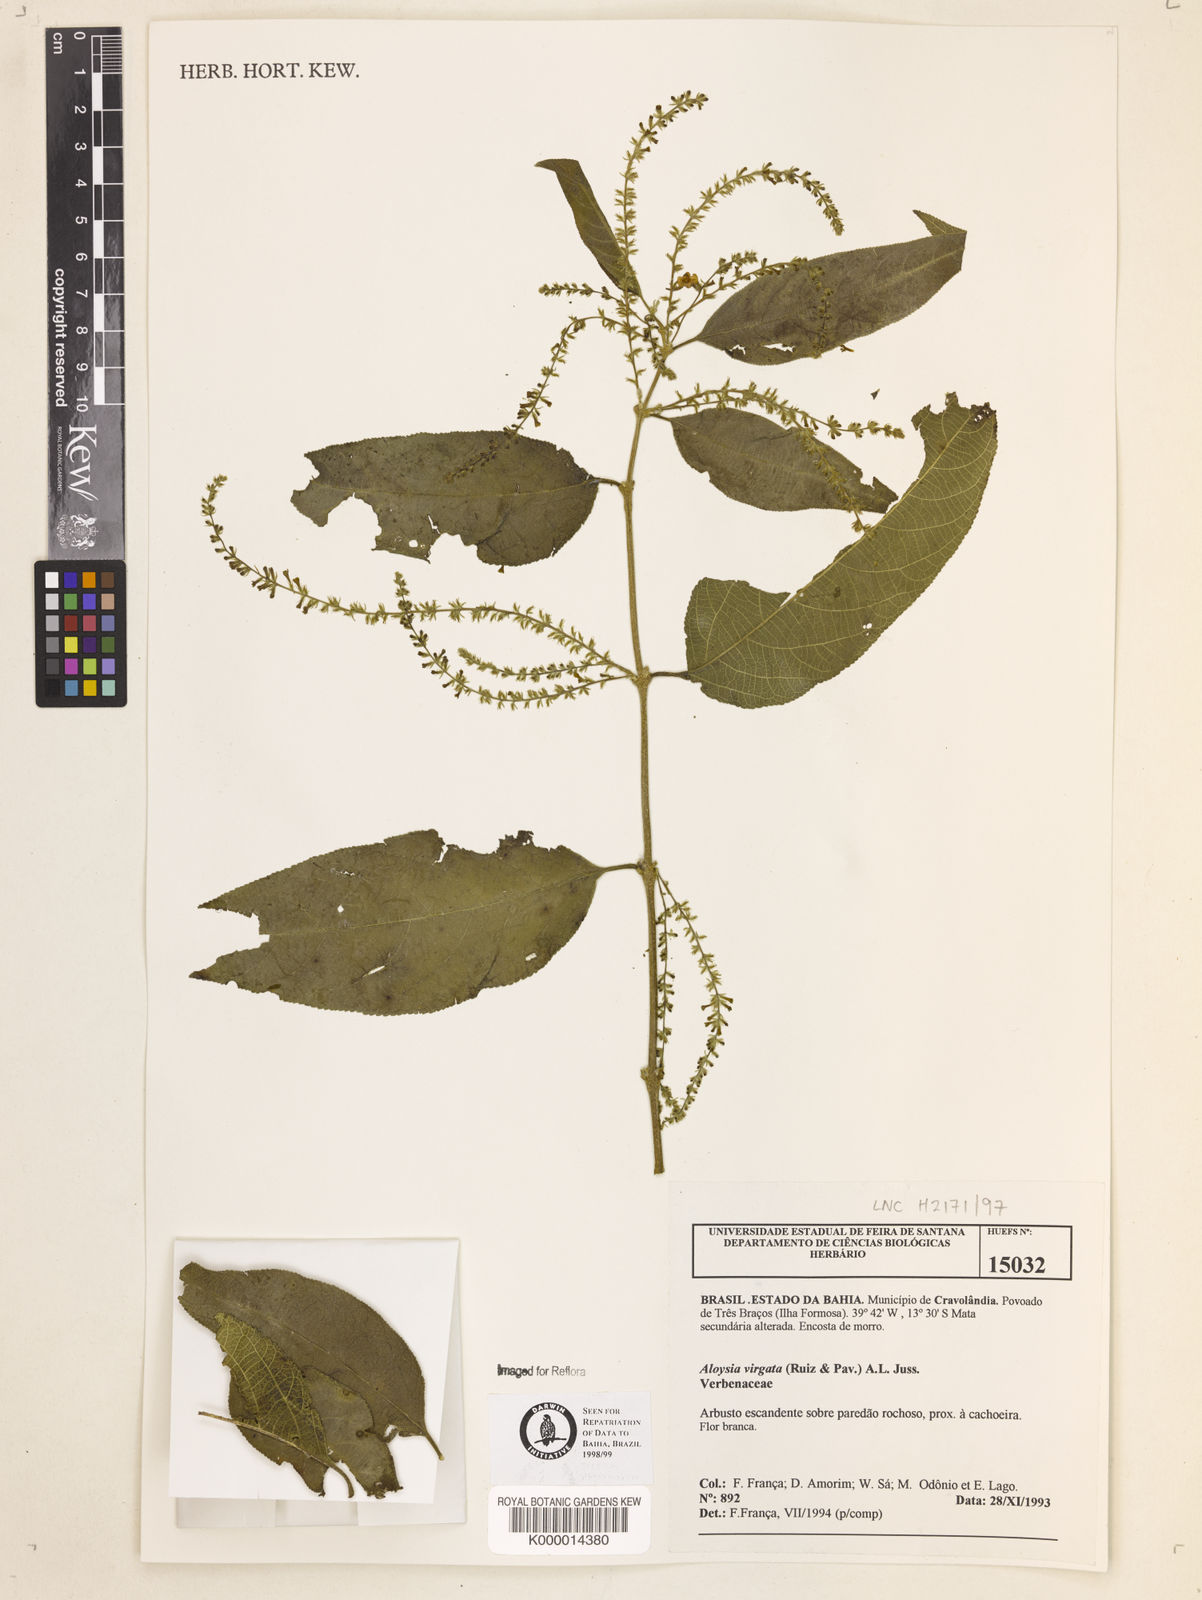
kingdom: Plantae
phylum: Tracheophyta
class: Magnoliopsida
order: Lamiales
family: Verbenaceae
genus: Aloysia
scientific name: Aloysia virgata
